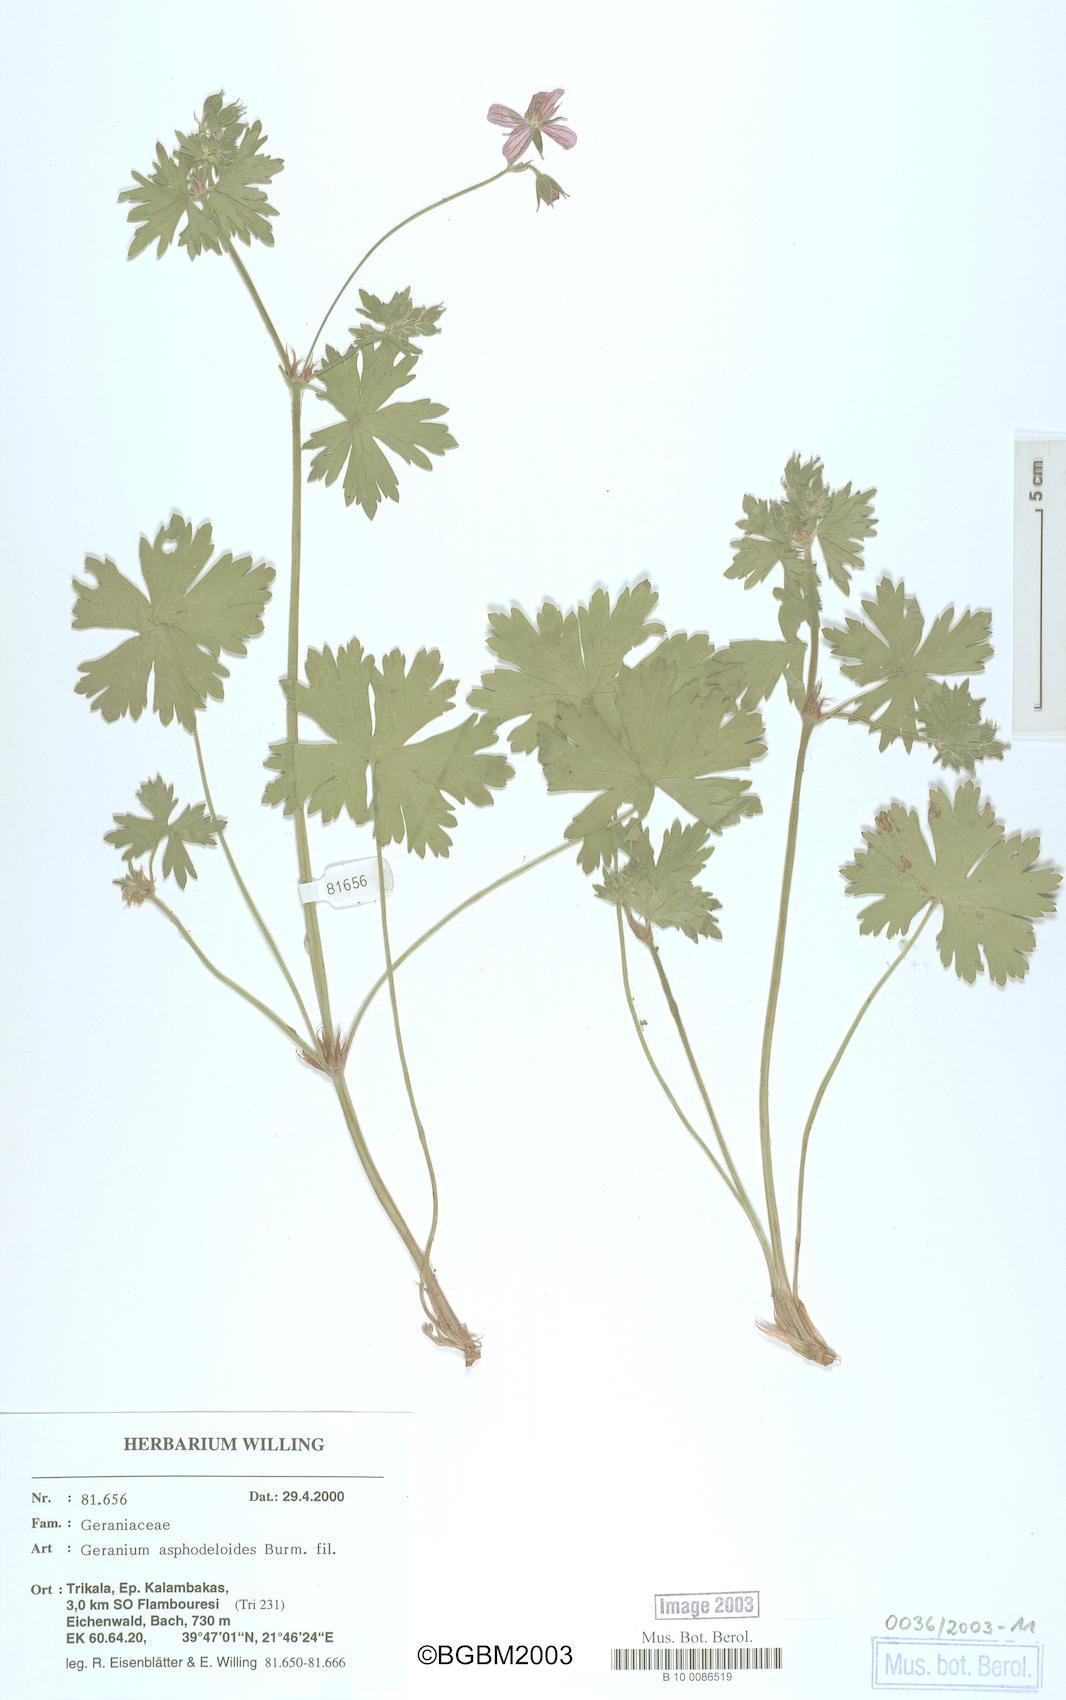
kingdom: Plantae
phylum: Tracheophyta
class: Magnoliopsida
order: Geraniales
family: Geraniaceae
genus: Geranium
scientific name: Geranium asphodeloides
